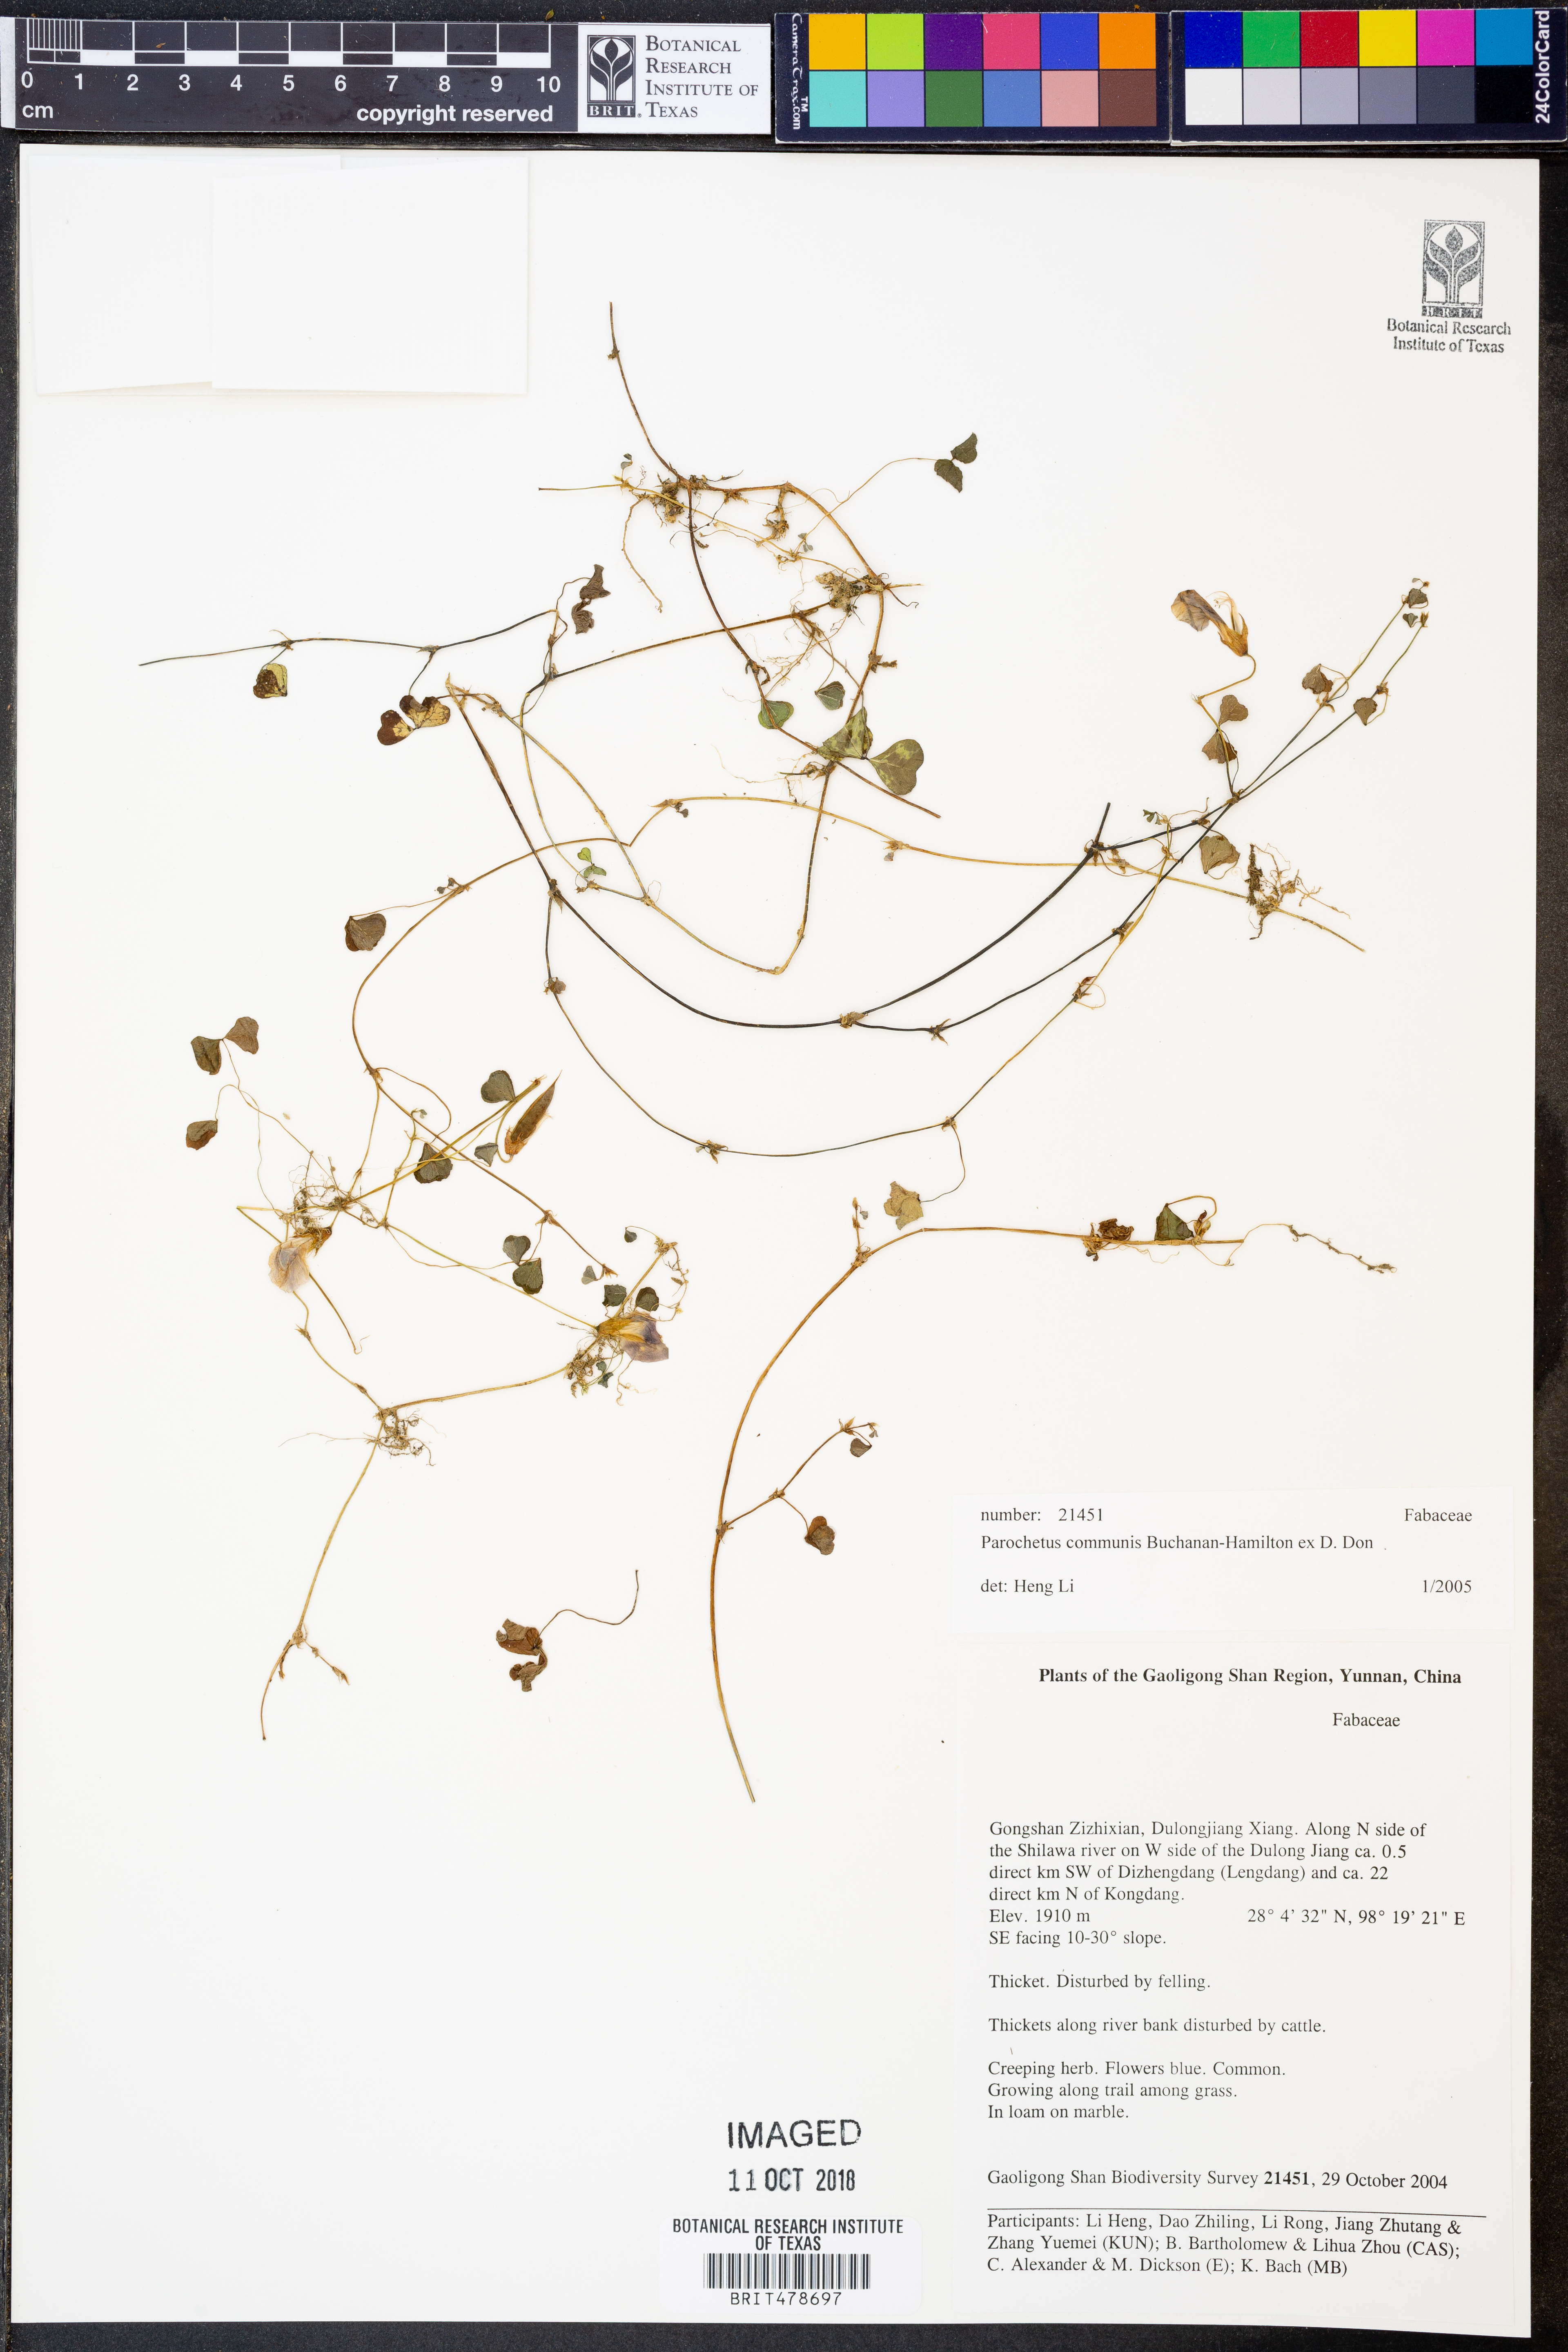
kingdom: Plantae
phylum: Tracheophyta
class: Magnoliopsida
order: Fabales
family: Fabaceae
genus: Parochetus
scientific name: Parochetus communis
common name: Blue oxalis
